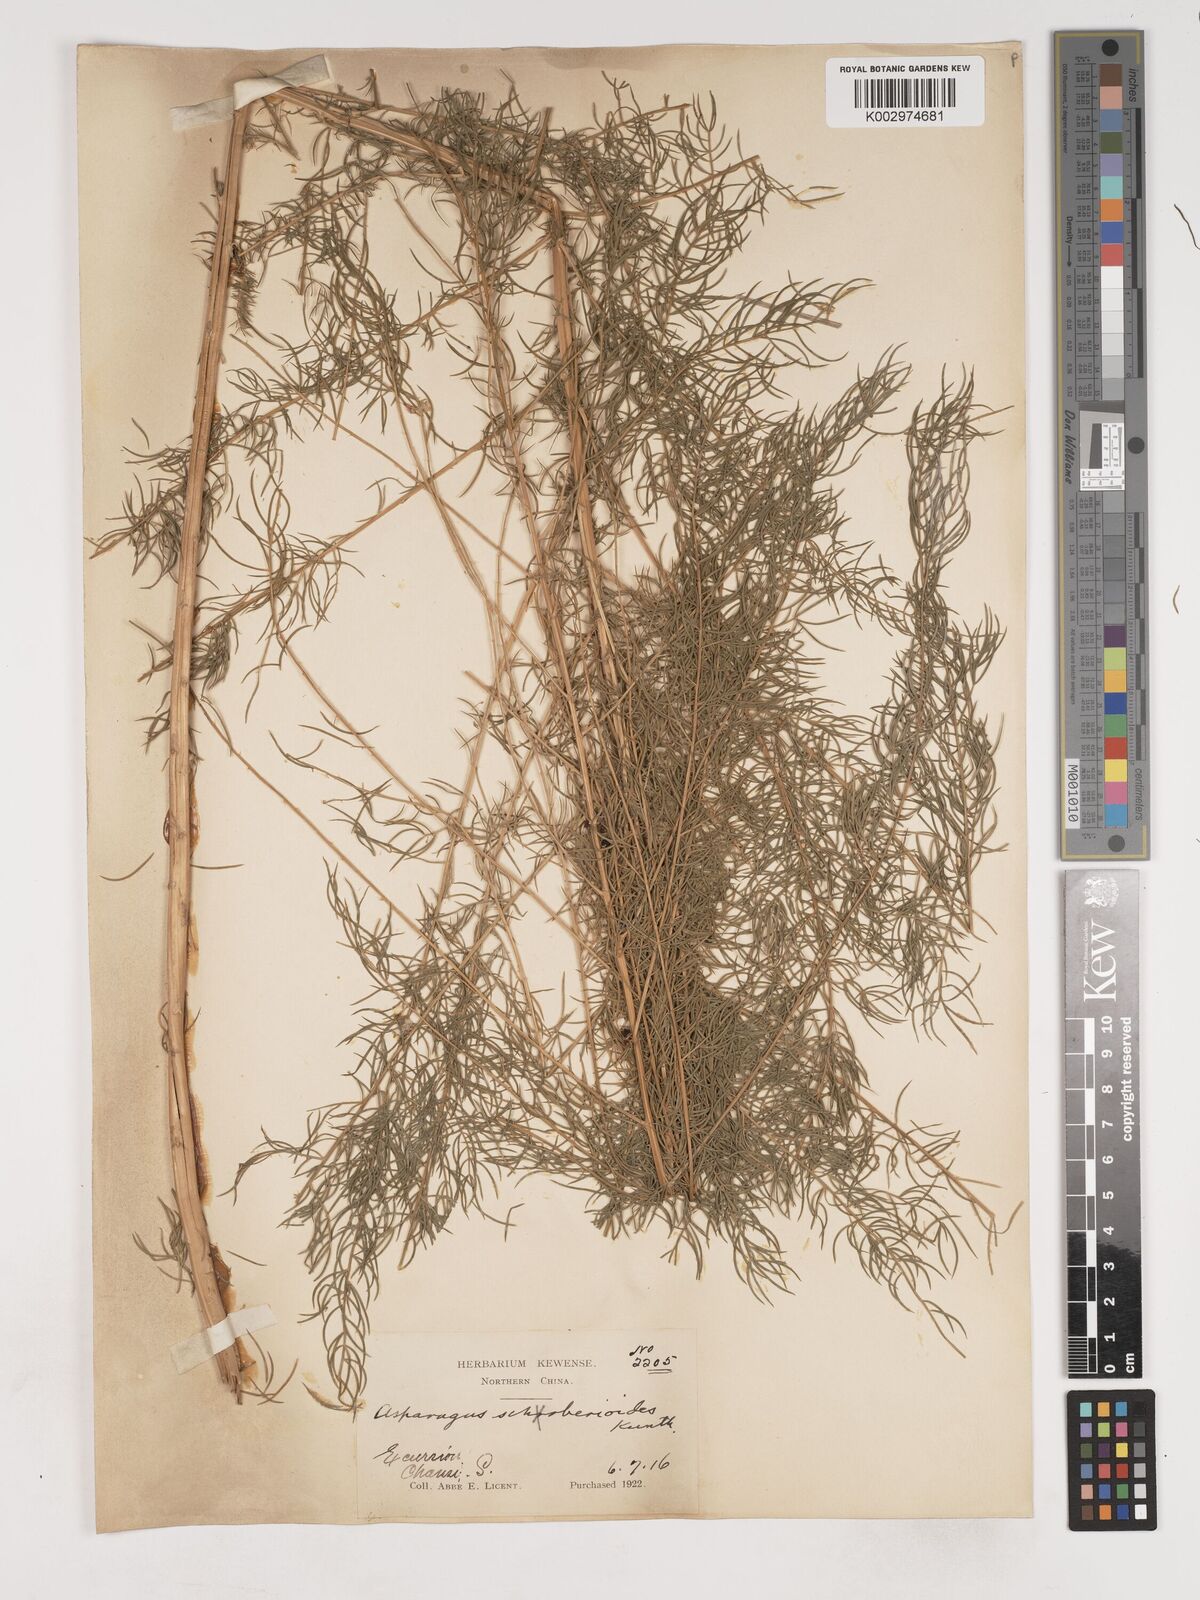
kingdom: Plantae
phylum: Tracheophyta
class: Liliopsida
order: Asparagales
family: Asparagaceae
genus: Asparagus
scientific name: Asparagus schoberioides
